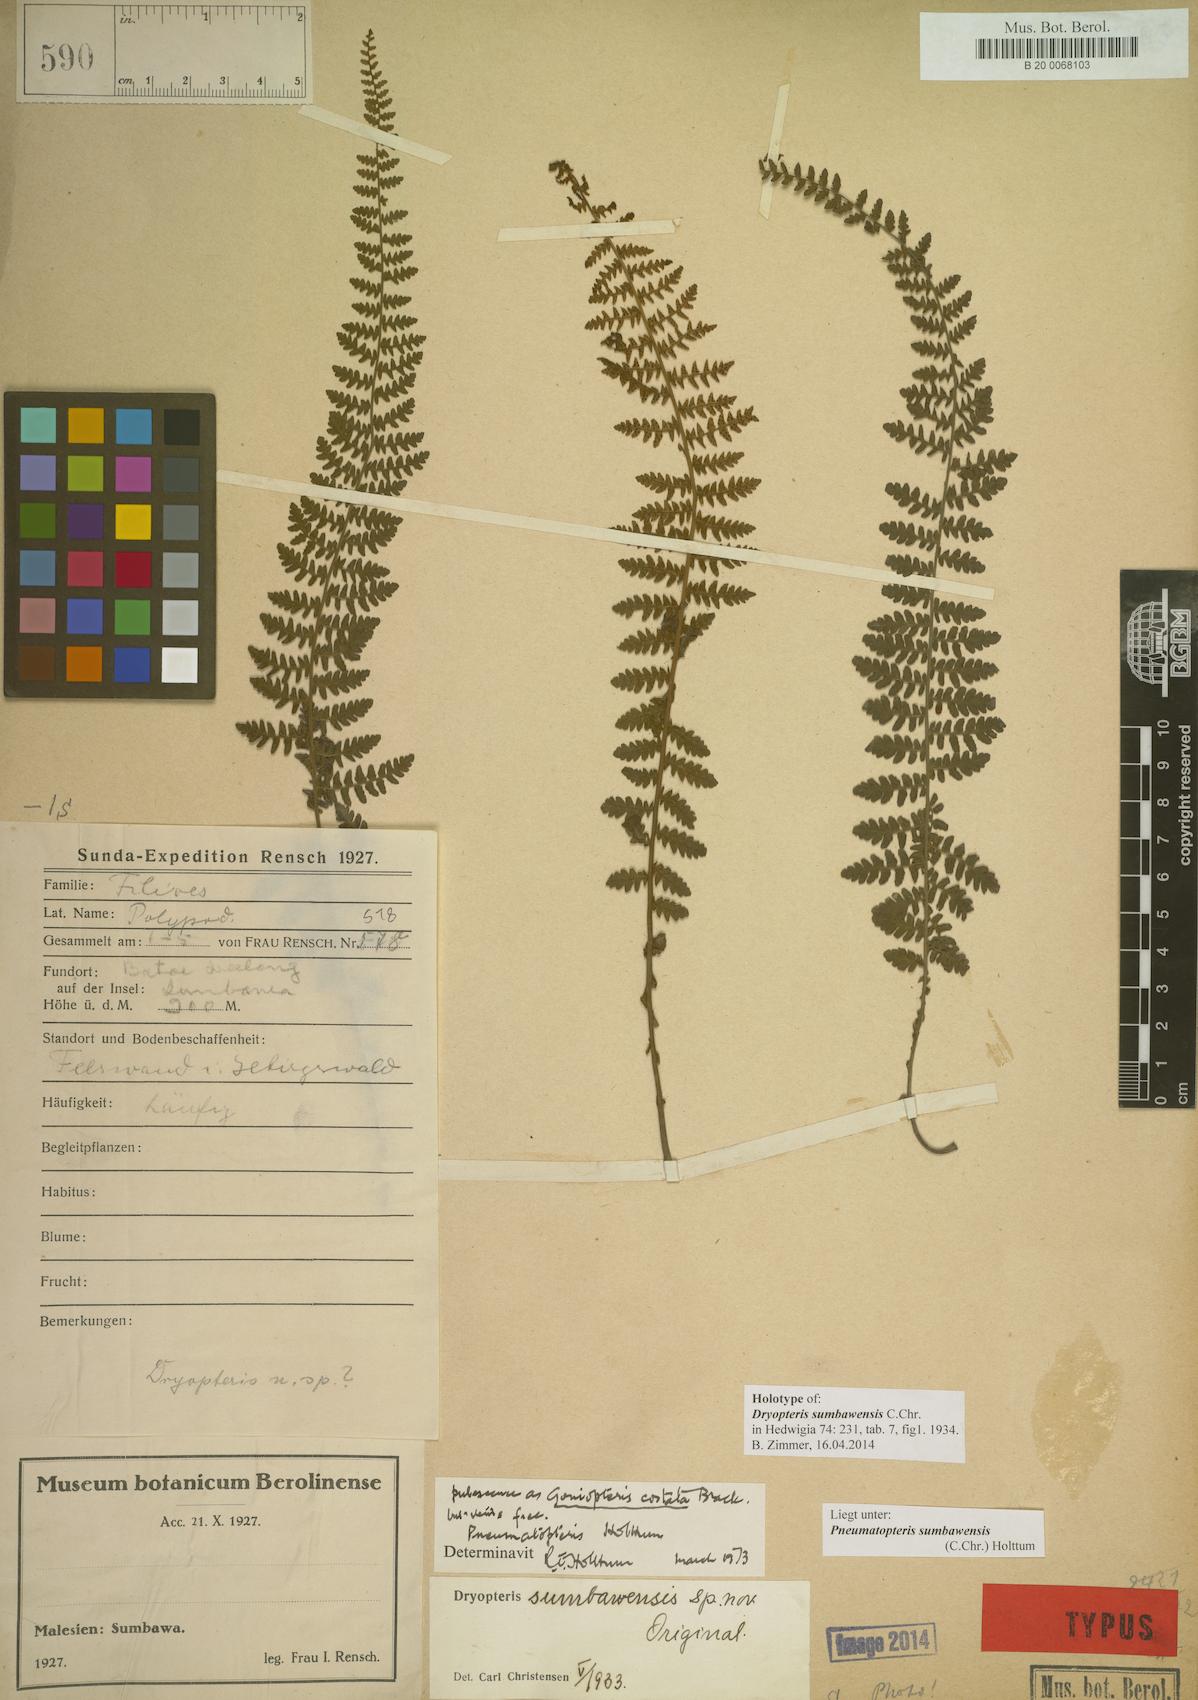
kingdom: Plantae
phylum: Tracheophyta
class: Polypodiopsida
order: Polypodiales
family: Thelypteridaceae
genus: Pneumatopteris
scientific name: Pneumatopteris sumbawensis
